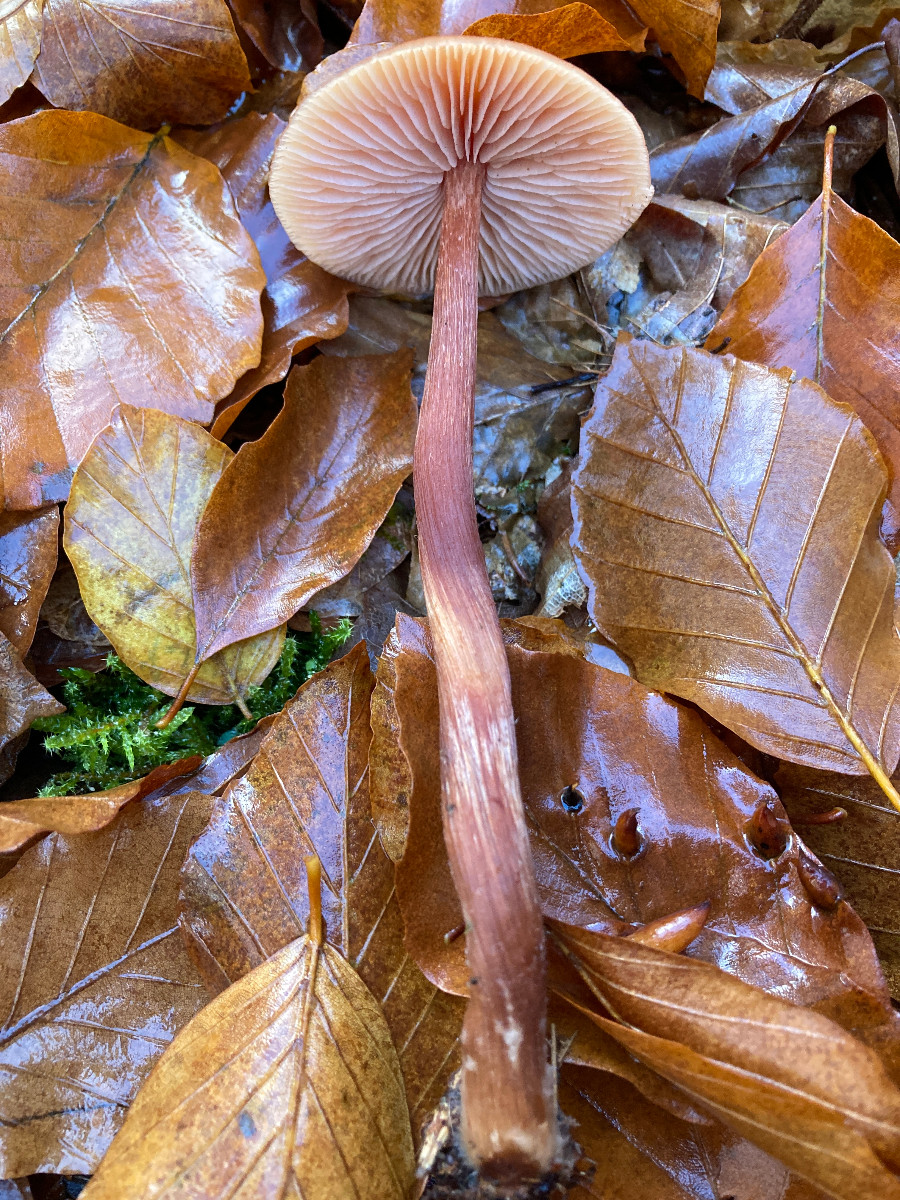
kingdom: Fungi
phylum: Basidiomycota
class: Agaricomycetes
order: Agaricales
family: Hydnangiaceae
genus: Laccaria
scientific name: Laccaria proxima
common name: stor ametysthat
